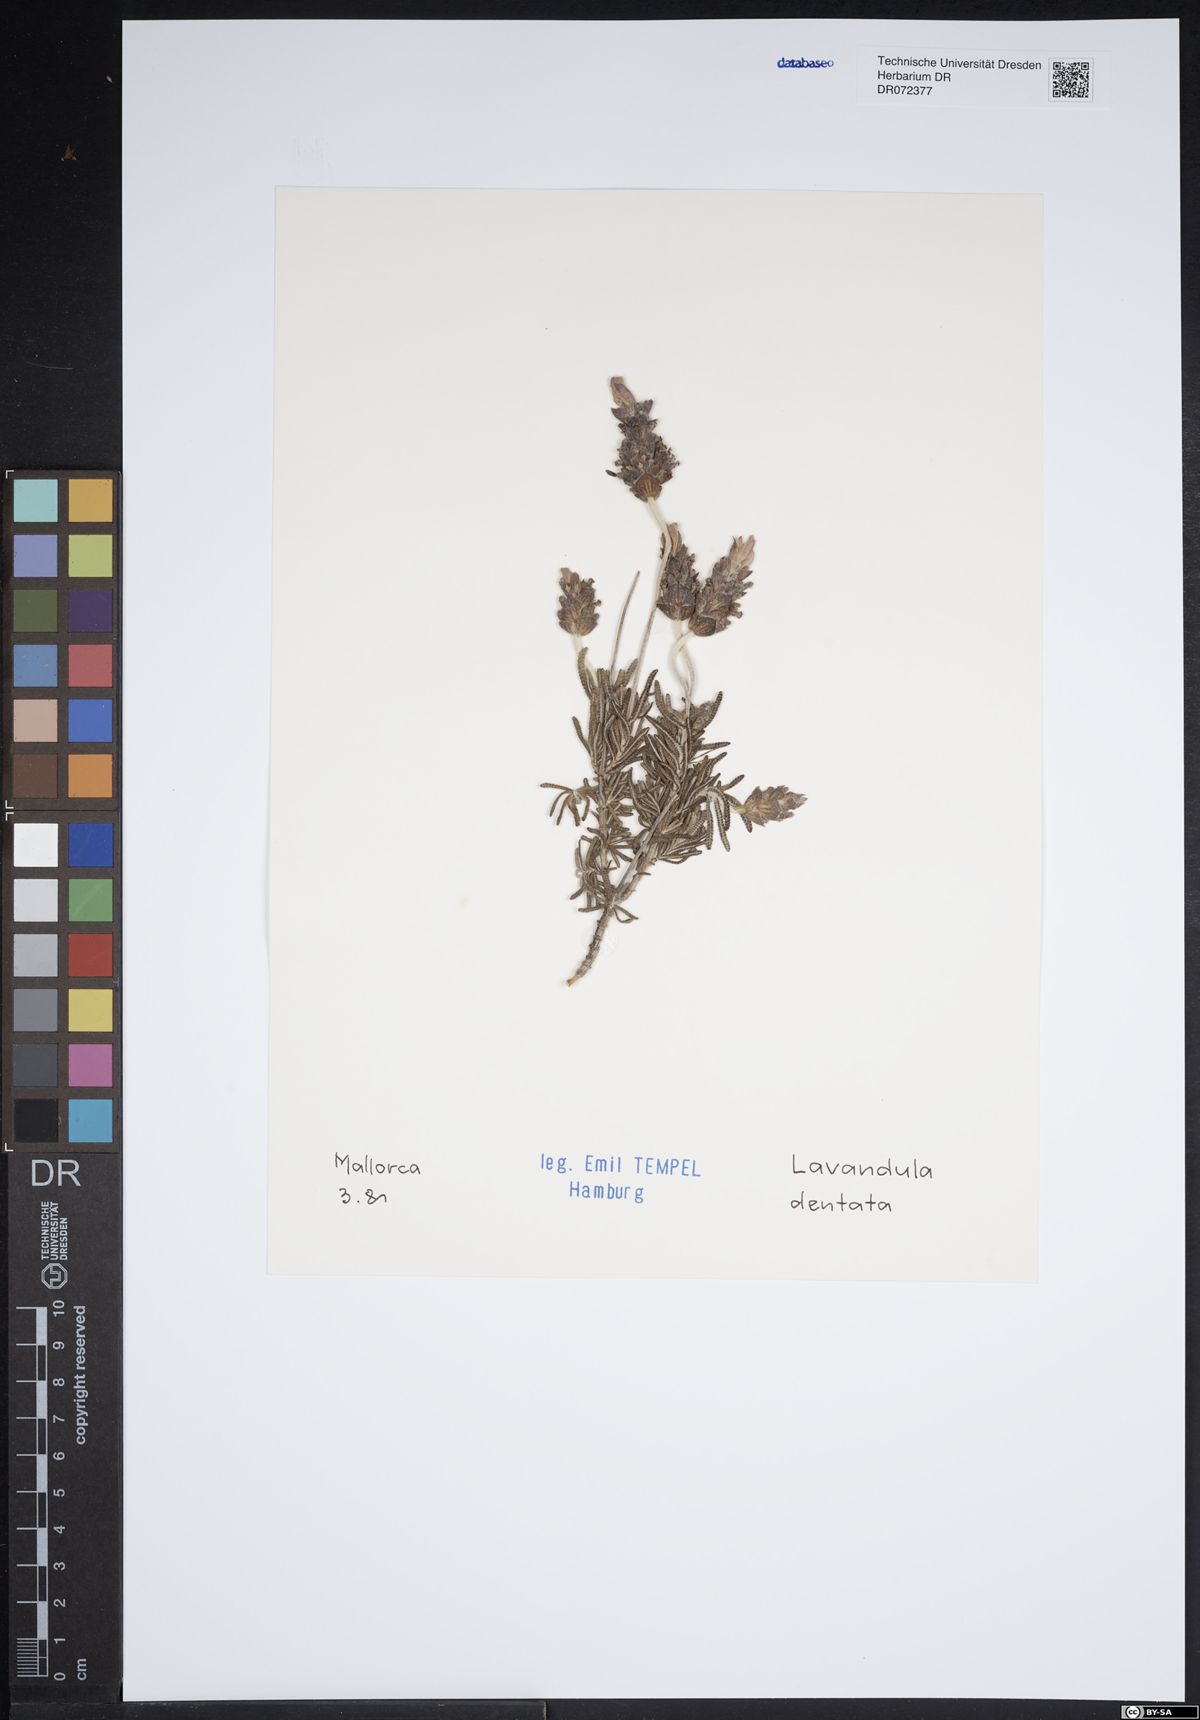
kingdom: Plantae
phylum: Tracheophyta
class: Magnoliopsida
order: Lamiales
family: Lamiaceae
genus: Lavandula
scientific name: Lavandula dentata
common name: French lavender
